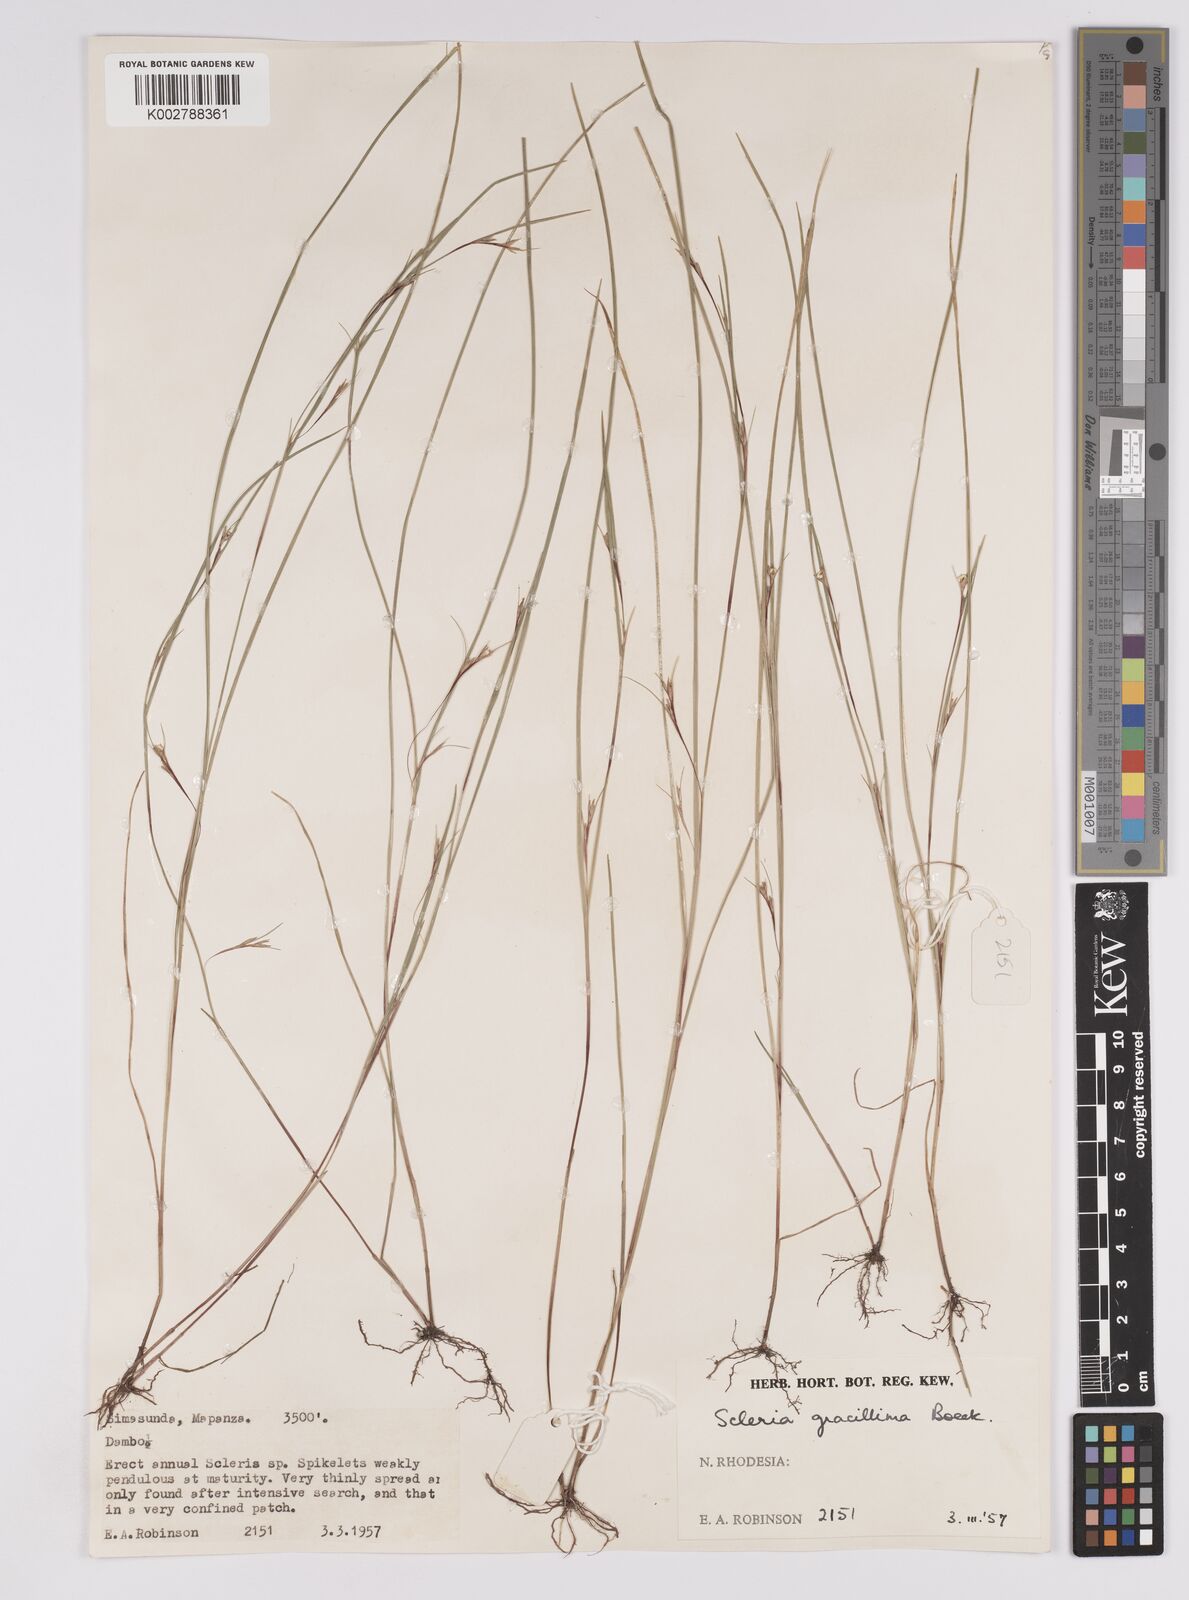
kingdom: Plantae
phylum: Tracheophyta
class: Liliopsida
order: Poales
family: Cyperaceae
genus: Scleria
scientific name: Scleria gracillima
